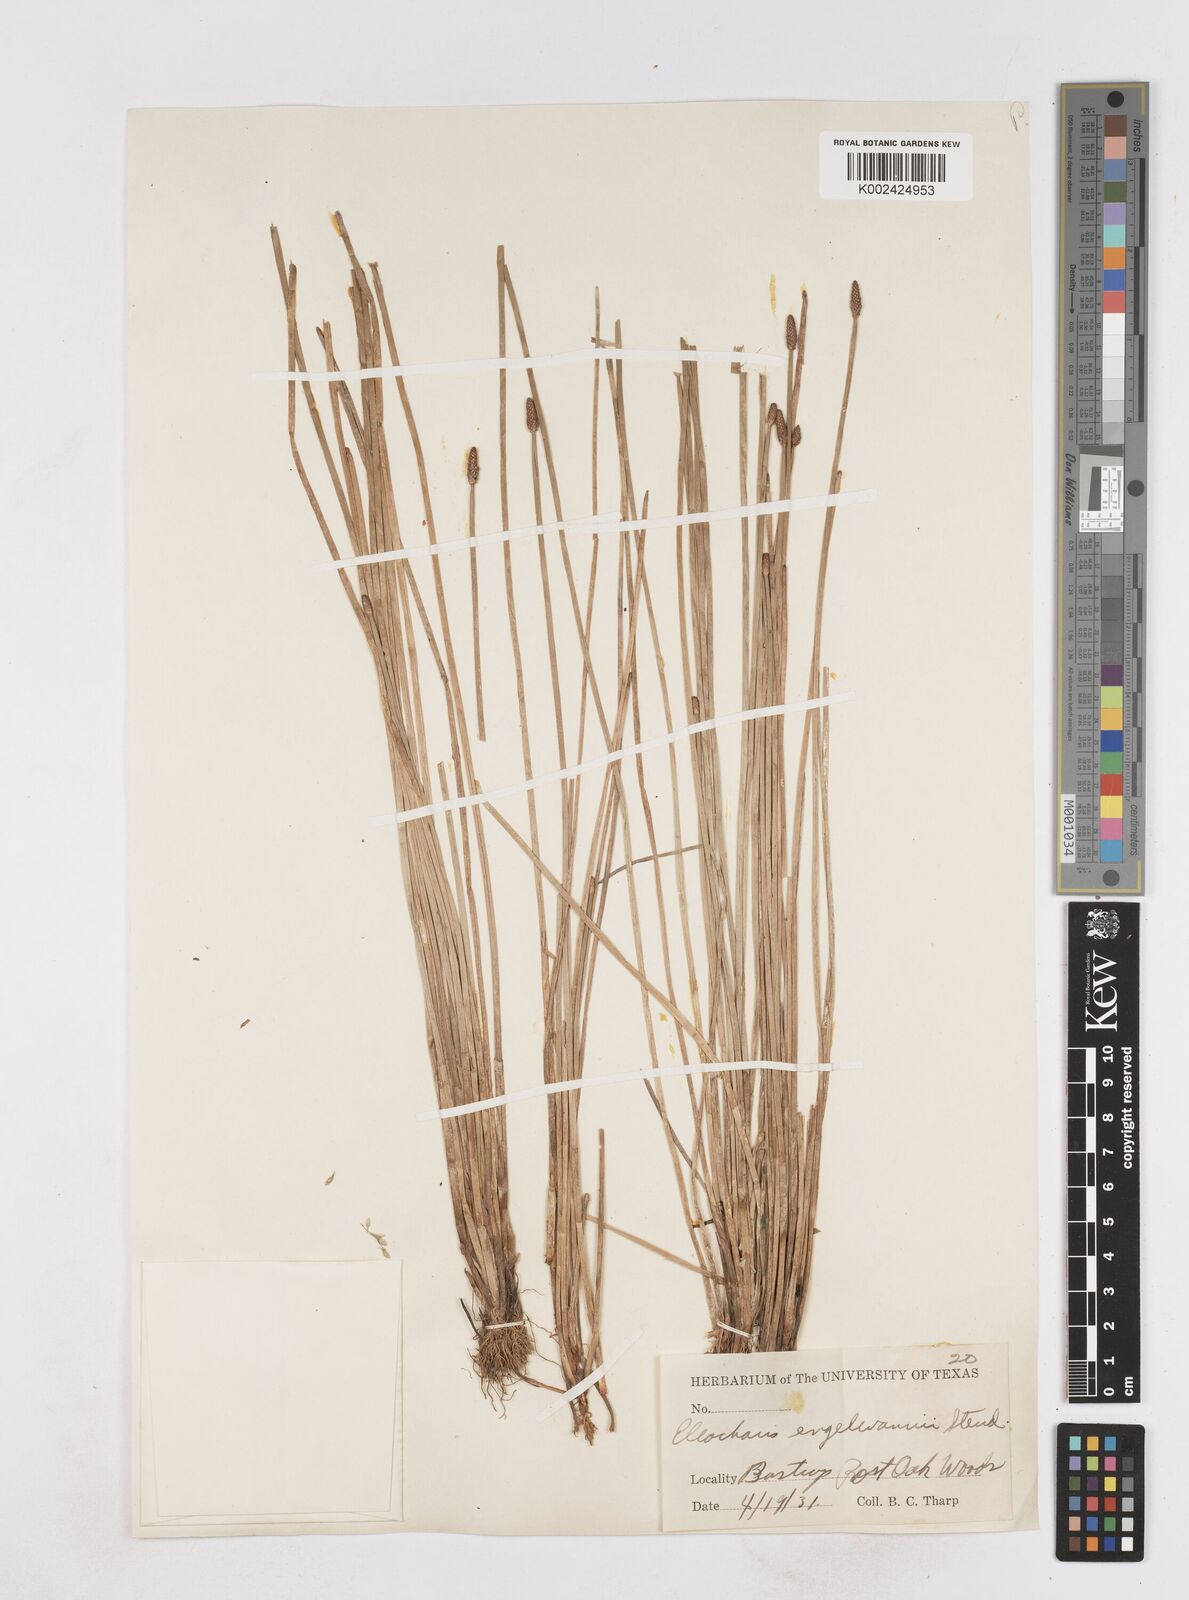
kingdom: Plantae
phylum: Tracheophyta
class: Liliopsida
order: Poales
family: Cyperaceae
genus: Eleocharis
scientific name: Eleocharis engelmannii
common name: Engelmann's spikerush
